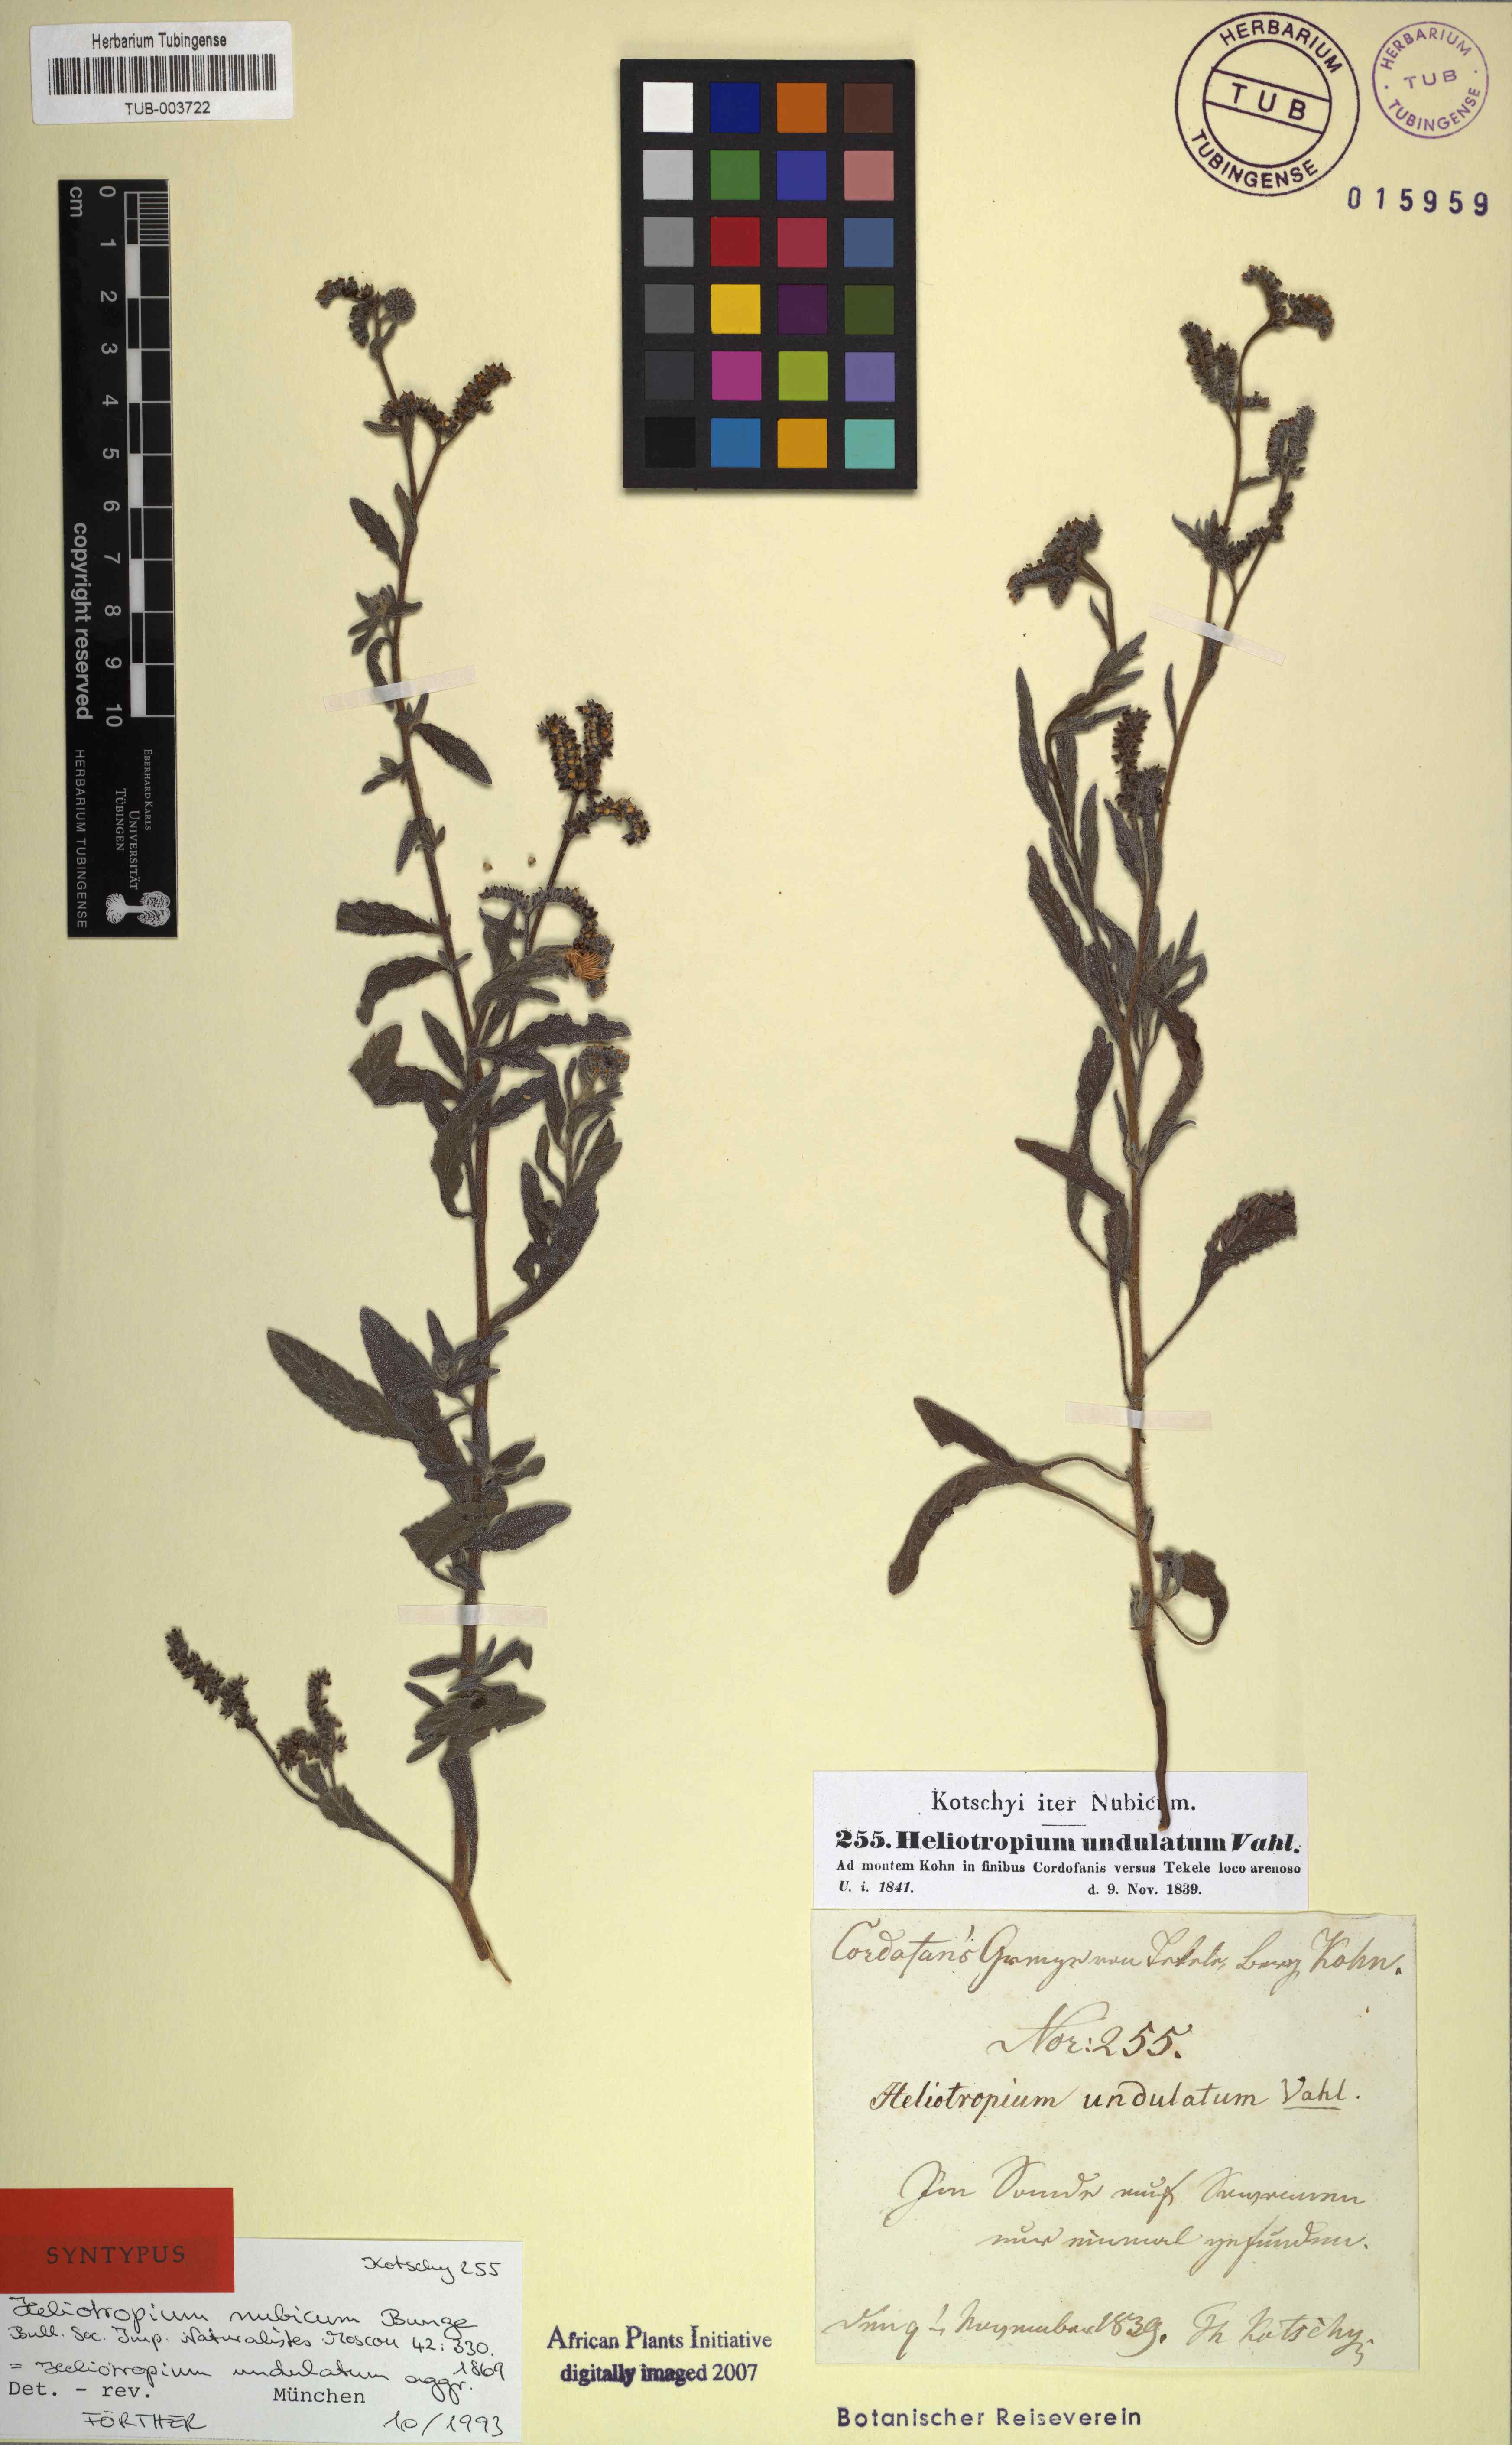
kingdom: Plantae
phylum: Tracheophyta
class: Magnoliopsida
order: Boraginales
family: Heliotropiaceae
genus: Heliotropium
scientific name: Heliotropium bacciferum
